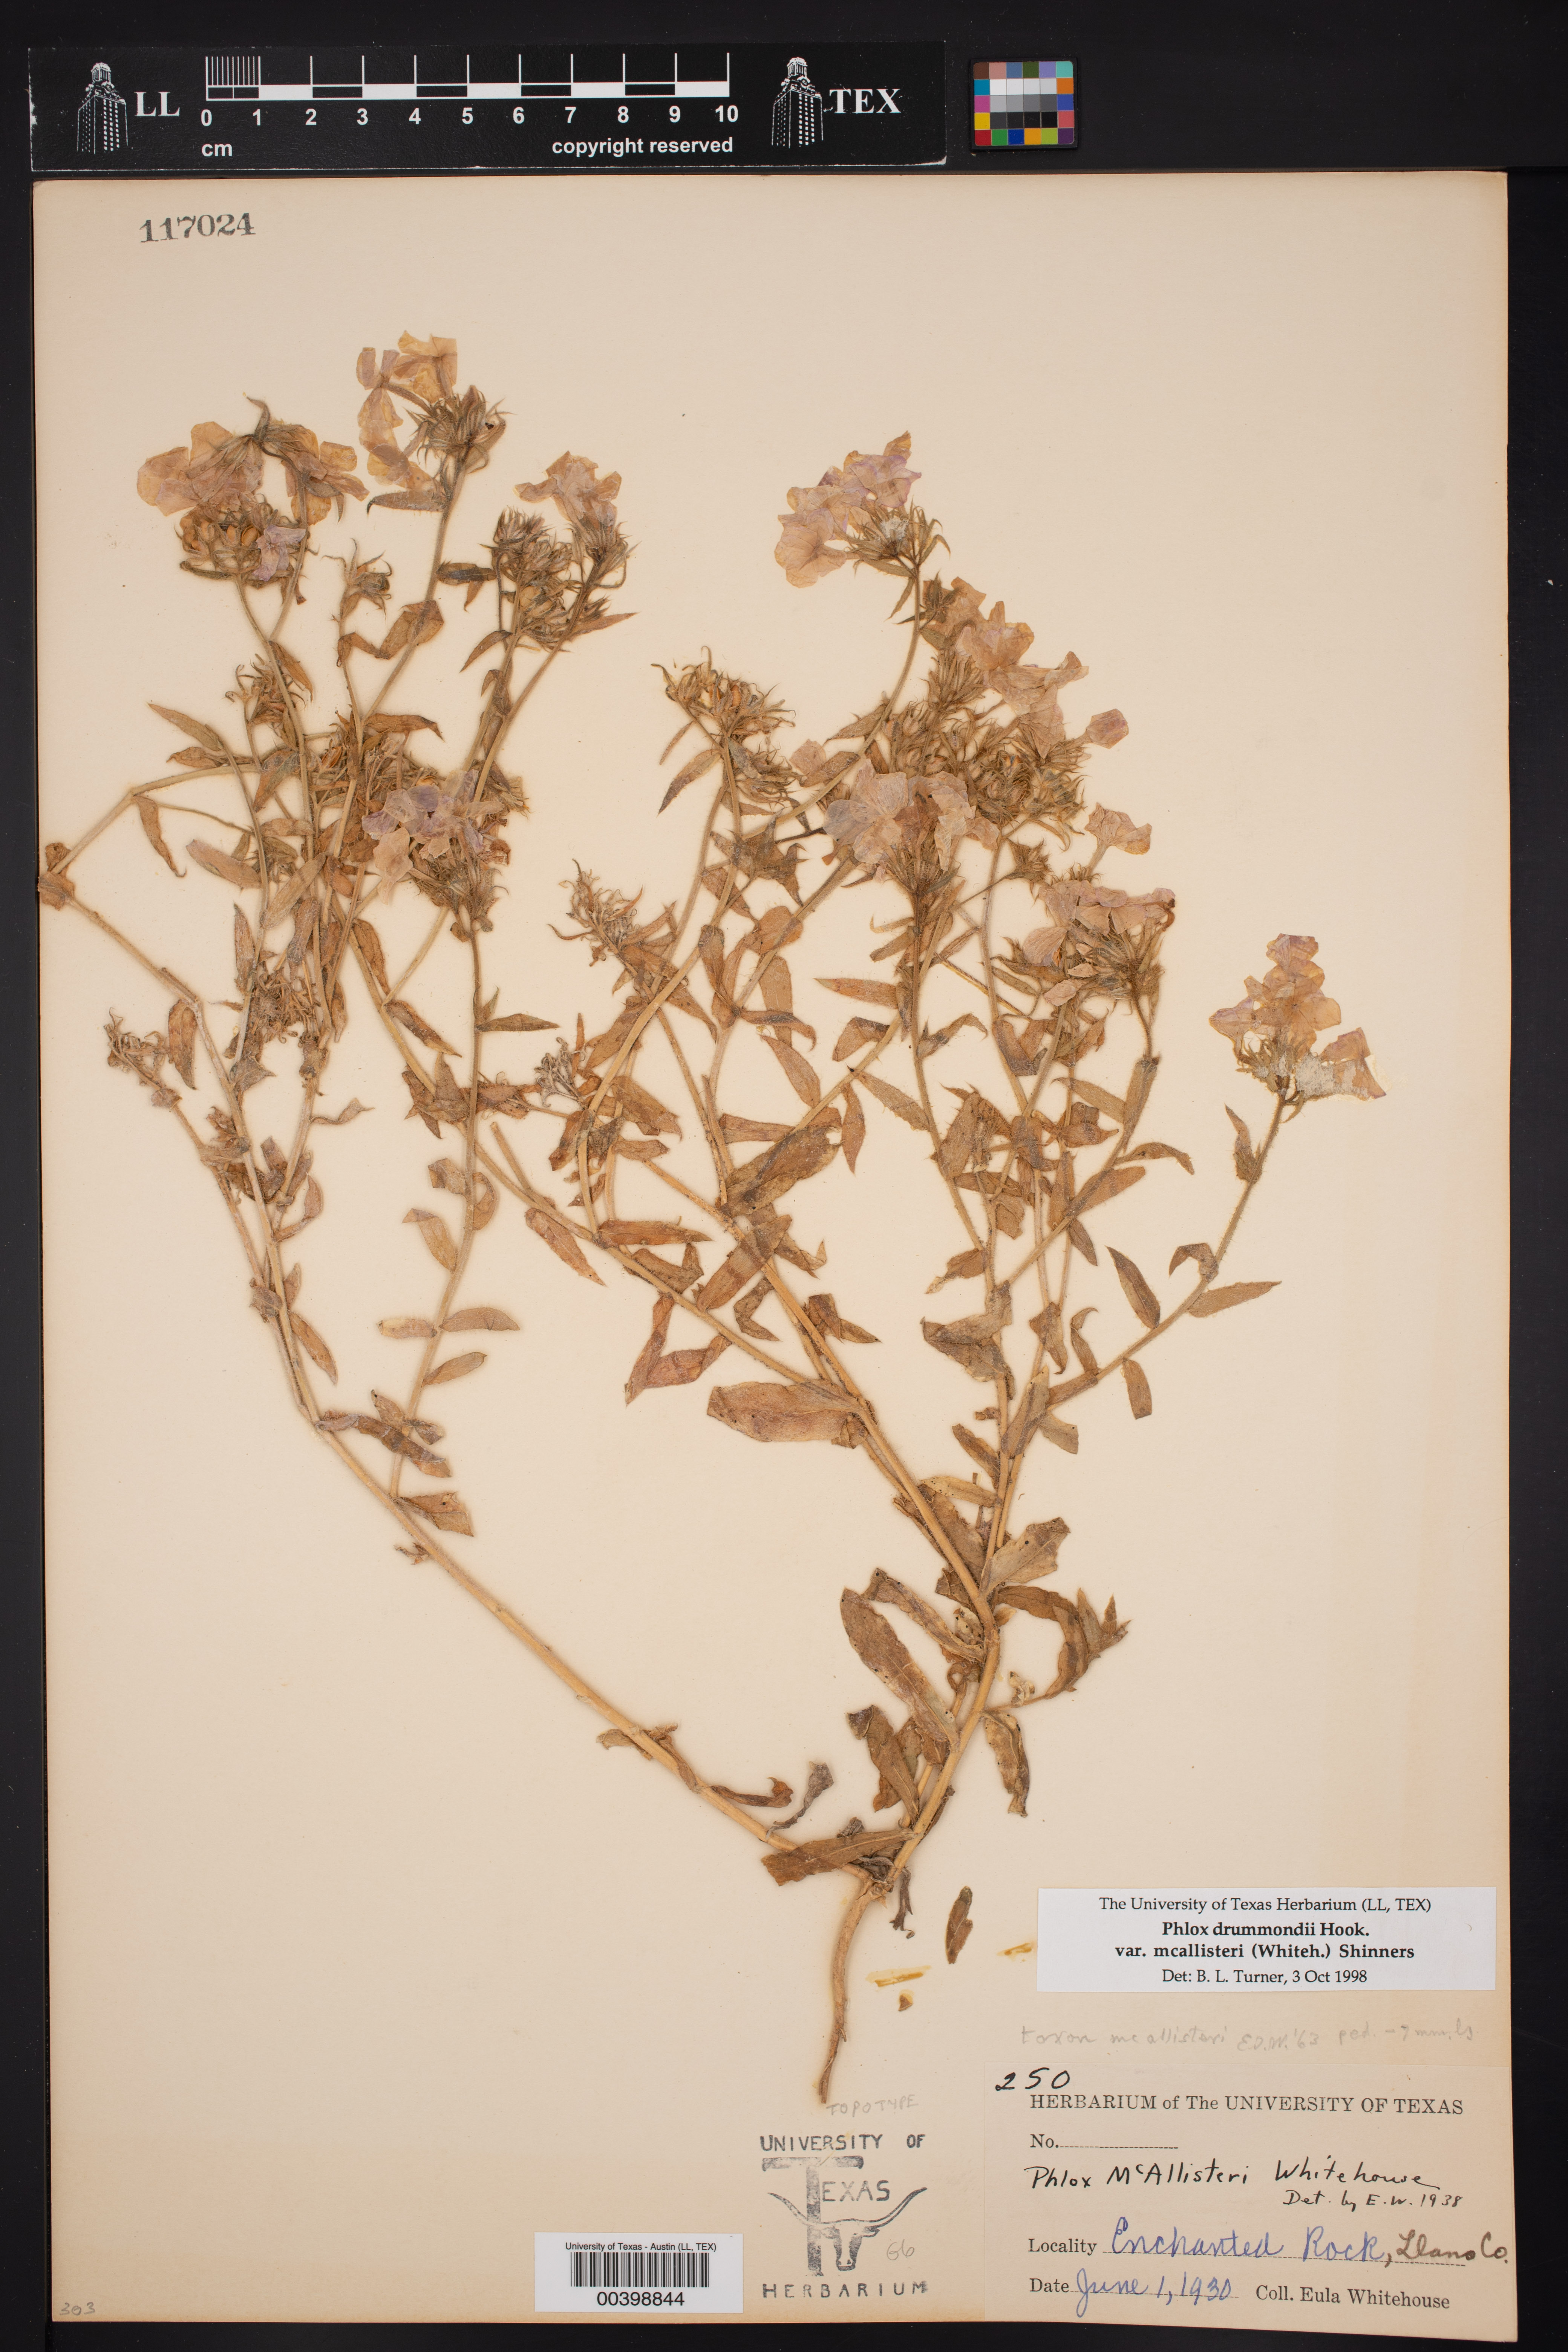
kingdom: Plantae
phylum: Tracheophyta
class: Magnoliopsida
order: Ericales
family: Polemoniaceae
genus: Phlox
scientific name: Phlox drummondii
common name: Drummond's phlox
